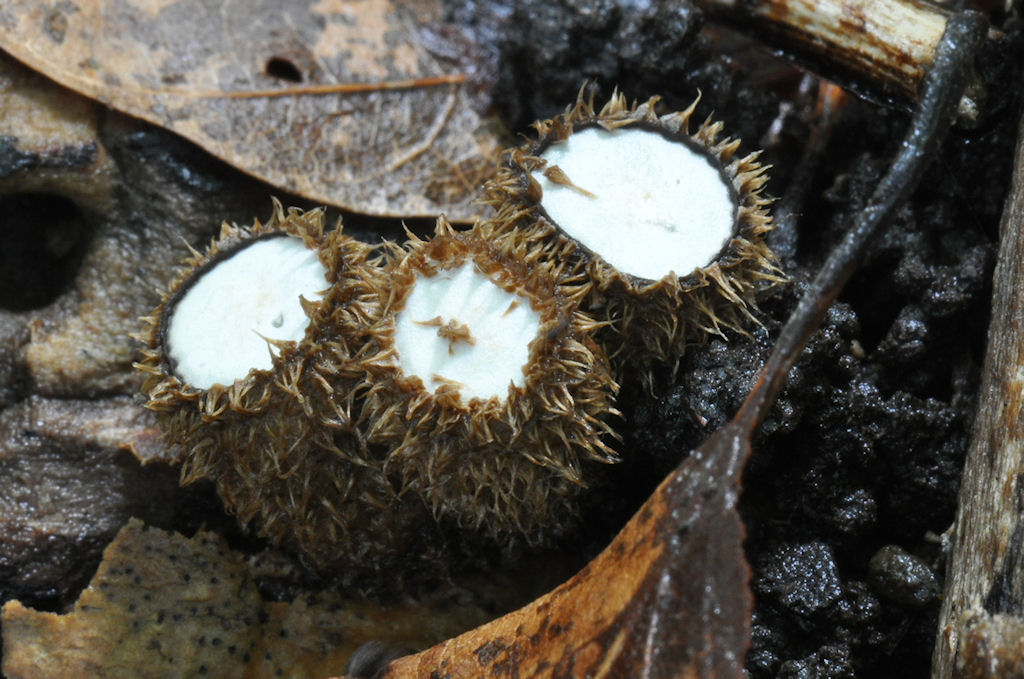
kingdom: Fungi
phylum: Basidiomycota
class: Agaricomycetes
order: Agaricales
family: Agaricaceae
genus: Cyathus
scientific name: Cyathus striatus
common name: stribet redesvamp
